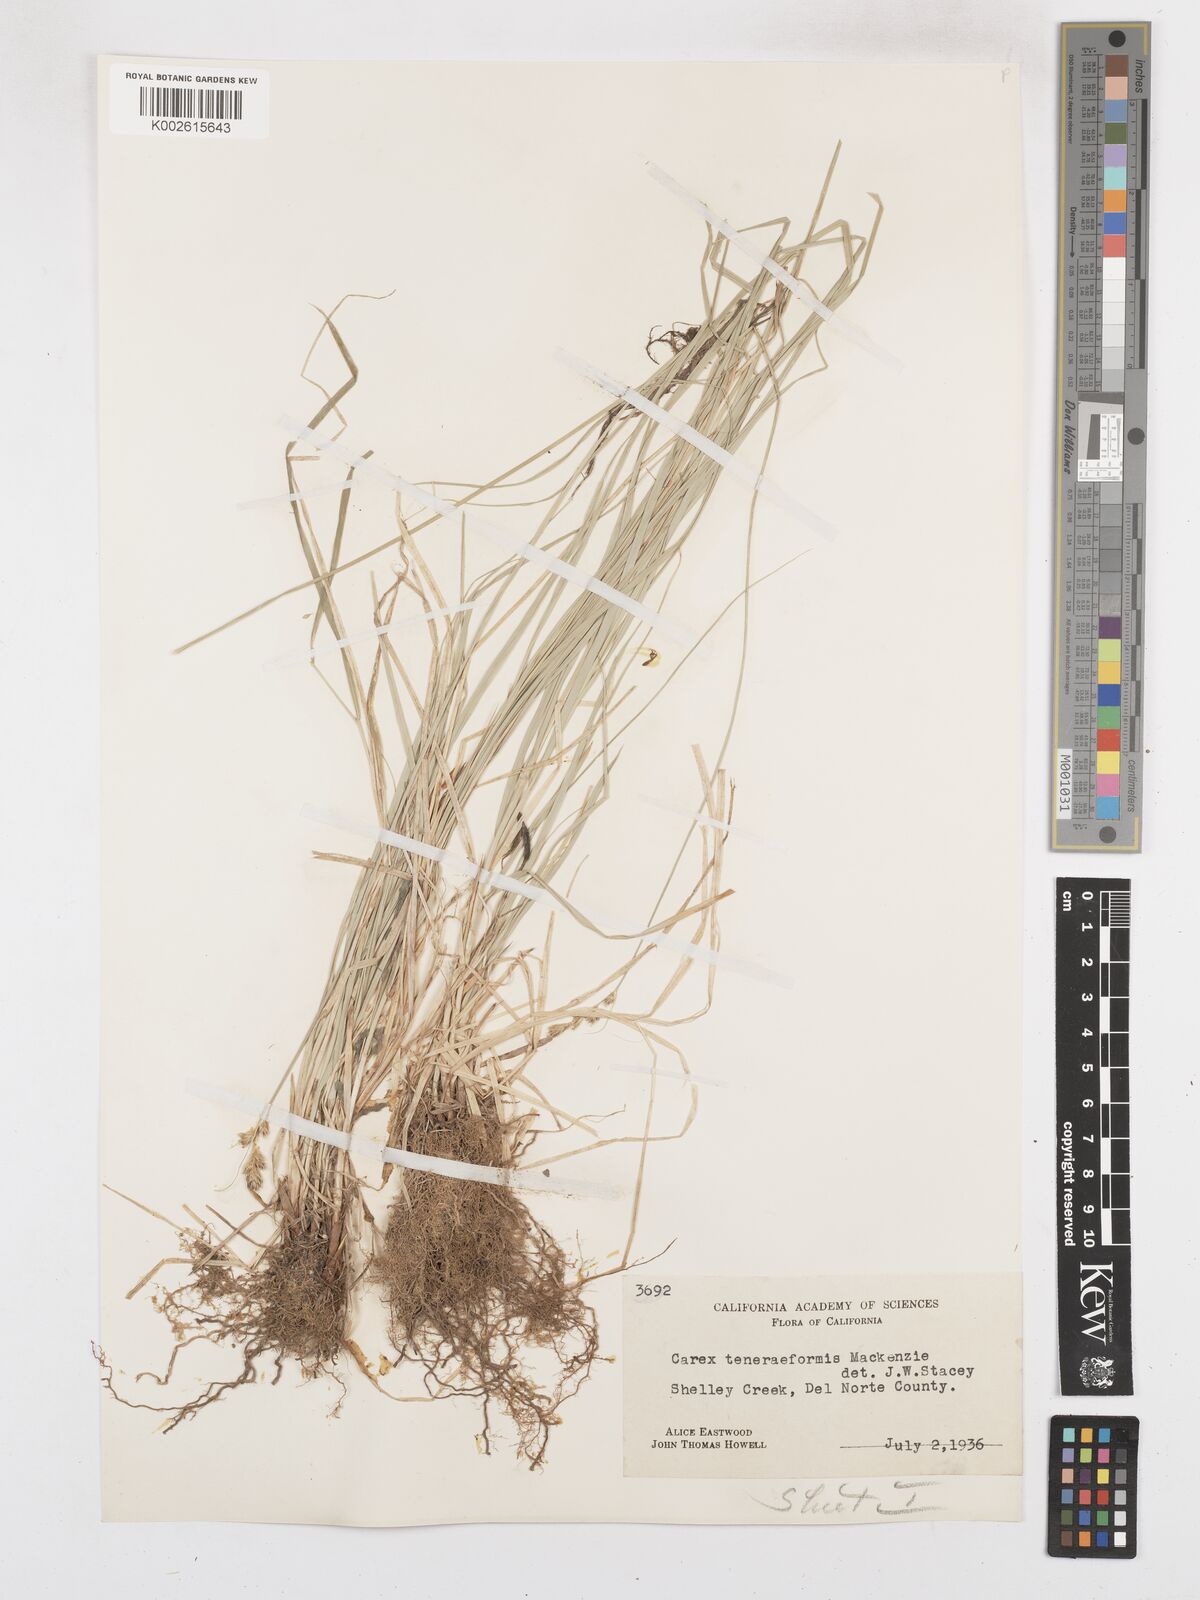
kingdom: Plantae
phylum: Tracheophyta
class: Liliopsida
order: Poales
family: Cyperaceae
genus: Carex
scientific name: Carex subfusca
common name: Brown sedge
